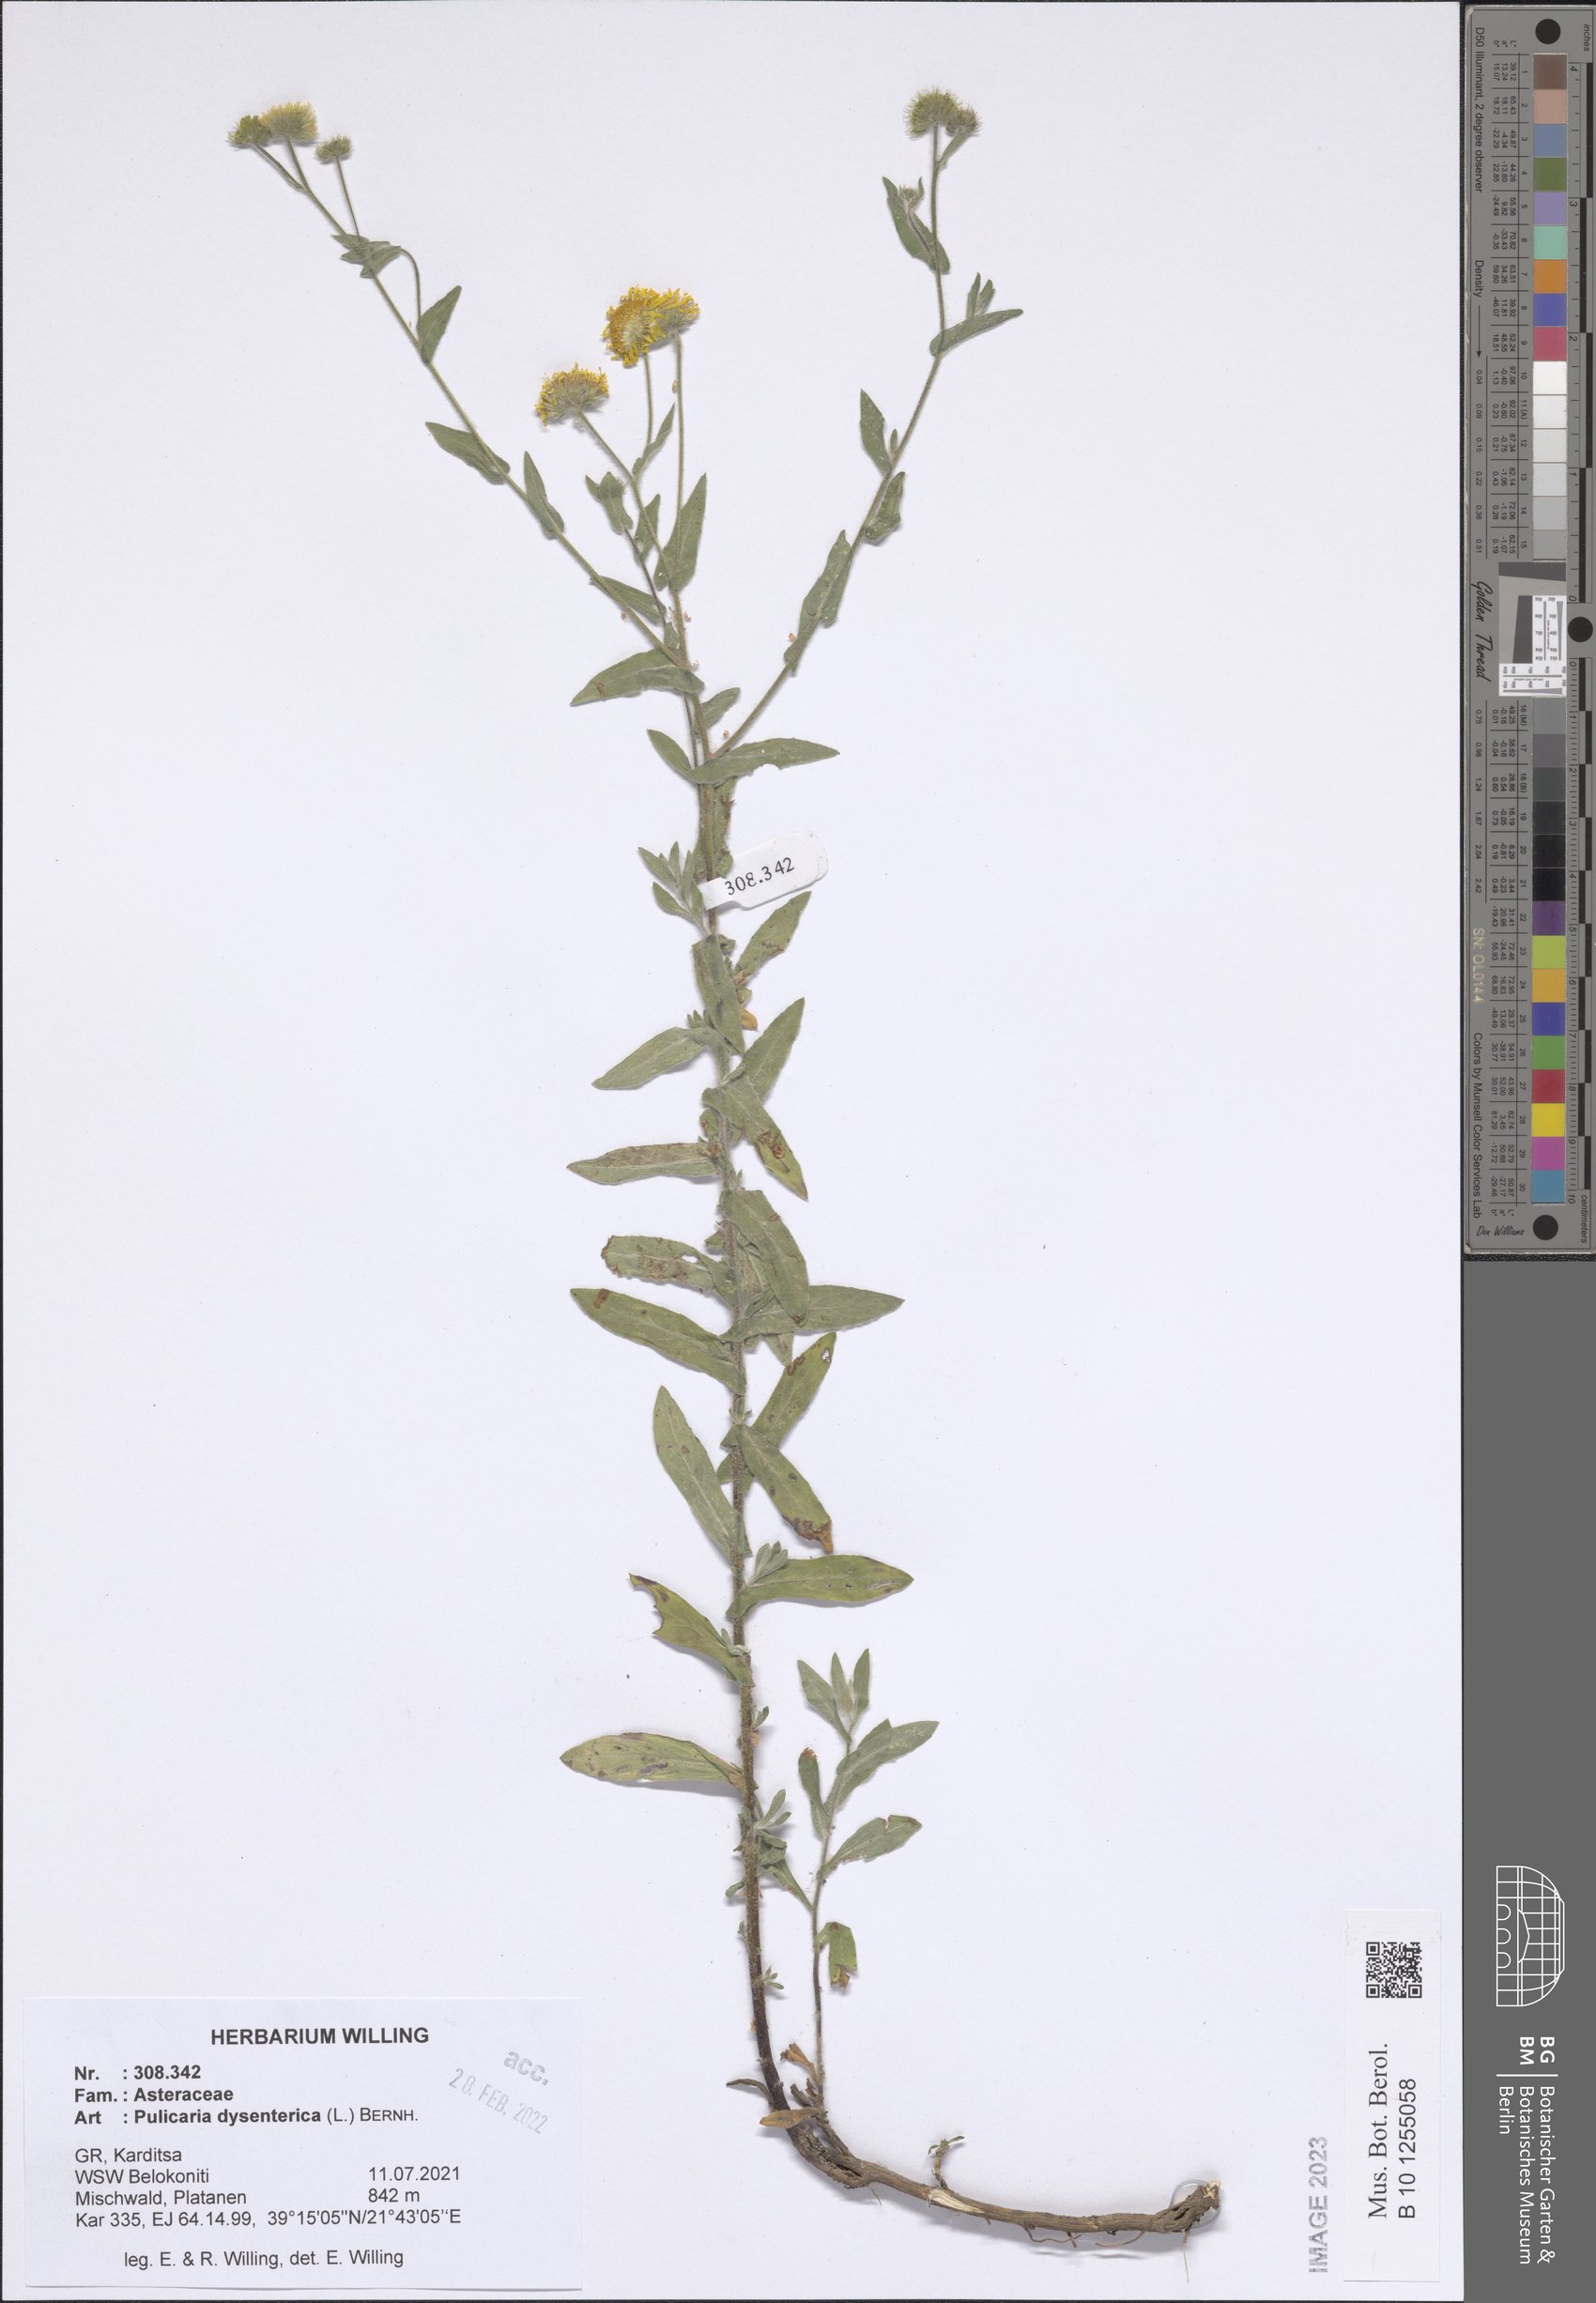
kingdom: Plantae
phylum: Tracheophyta
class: Magnoliopsida
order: Asterales
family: Asteraceae
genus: Pulicaria
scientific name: Pulicaria dysenterica
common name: Common fleabane
